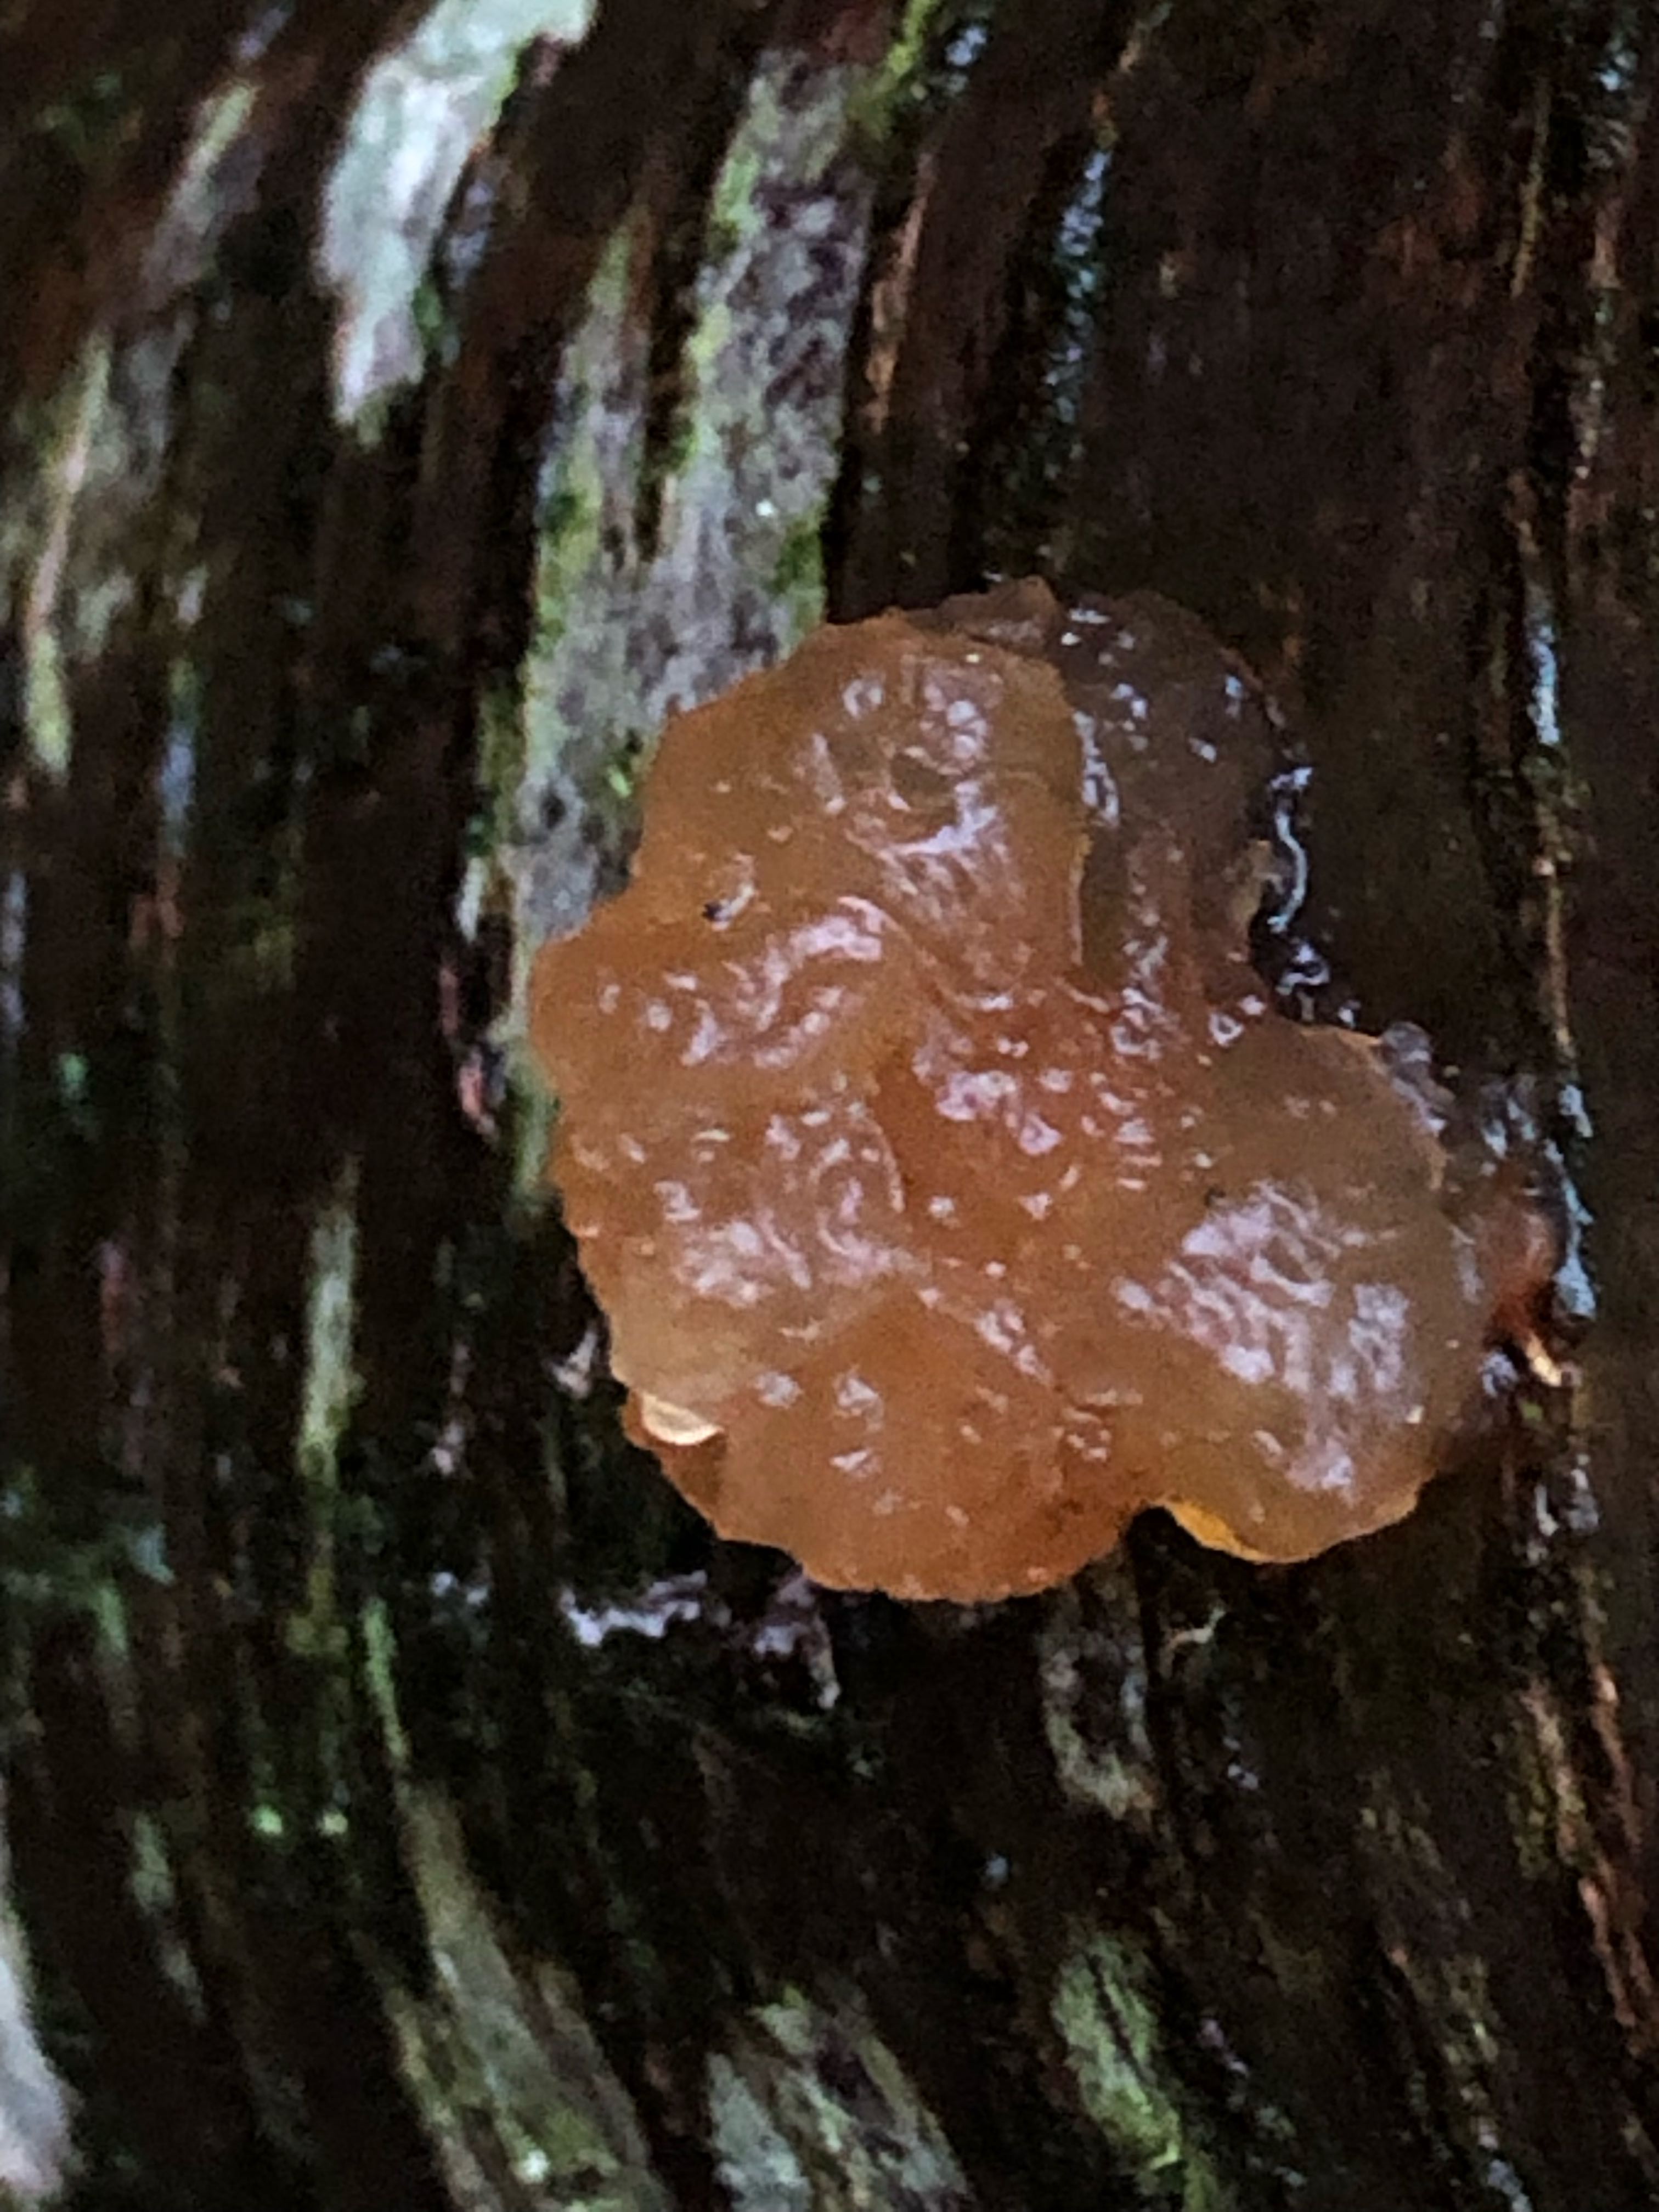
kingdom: Fungi
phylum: Basidiomycota
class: Agaricomycetes
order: Auriculariales
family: Hyaloriaceae
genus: Myxarium
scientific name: Myxarium
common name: bævretop
